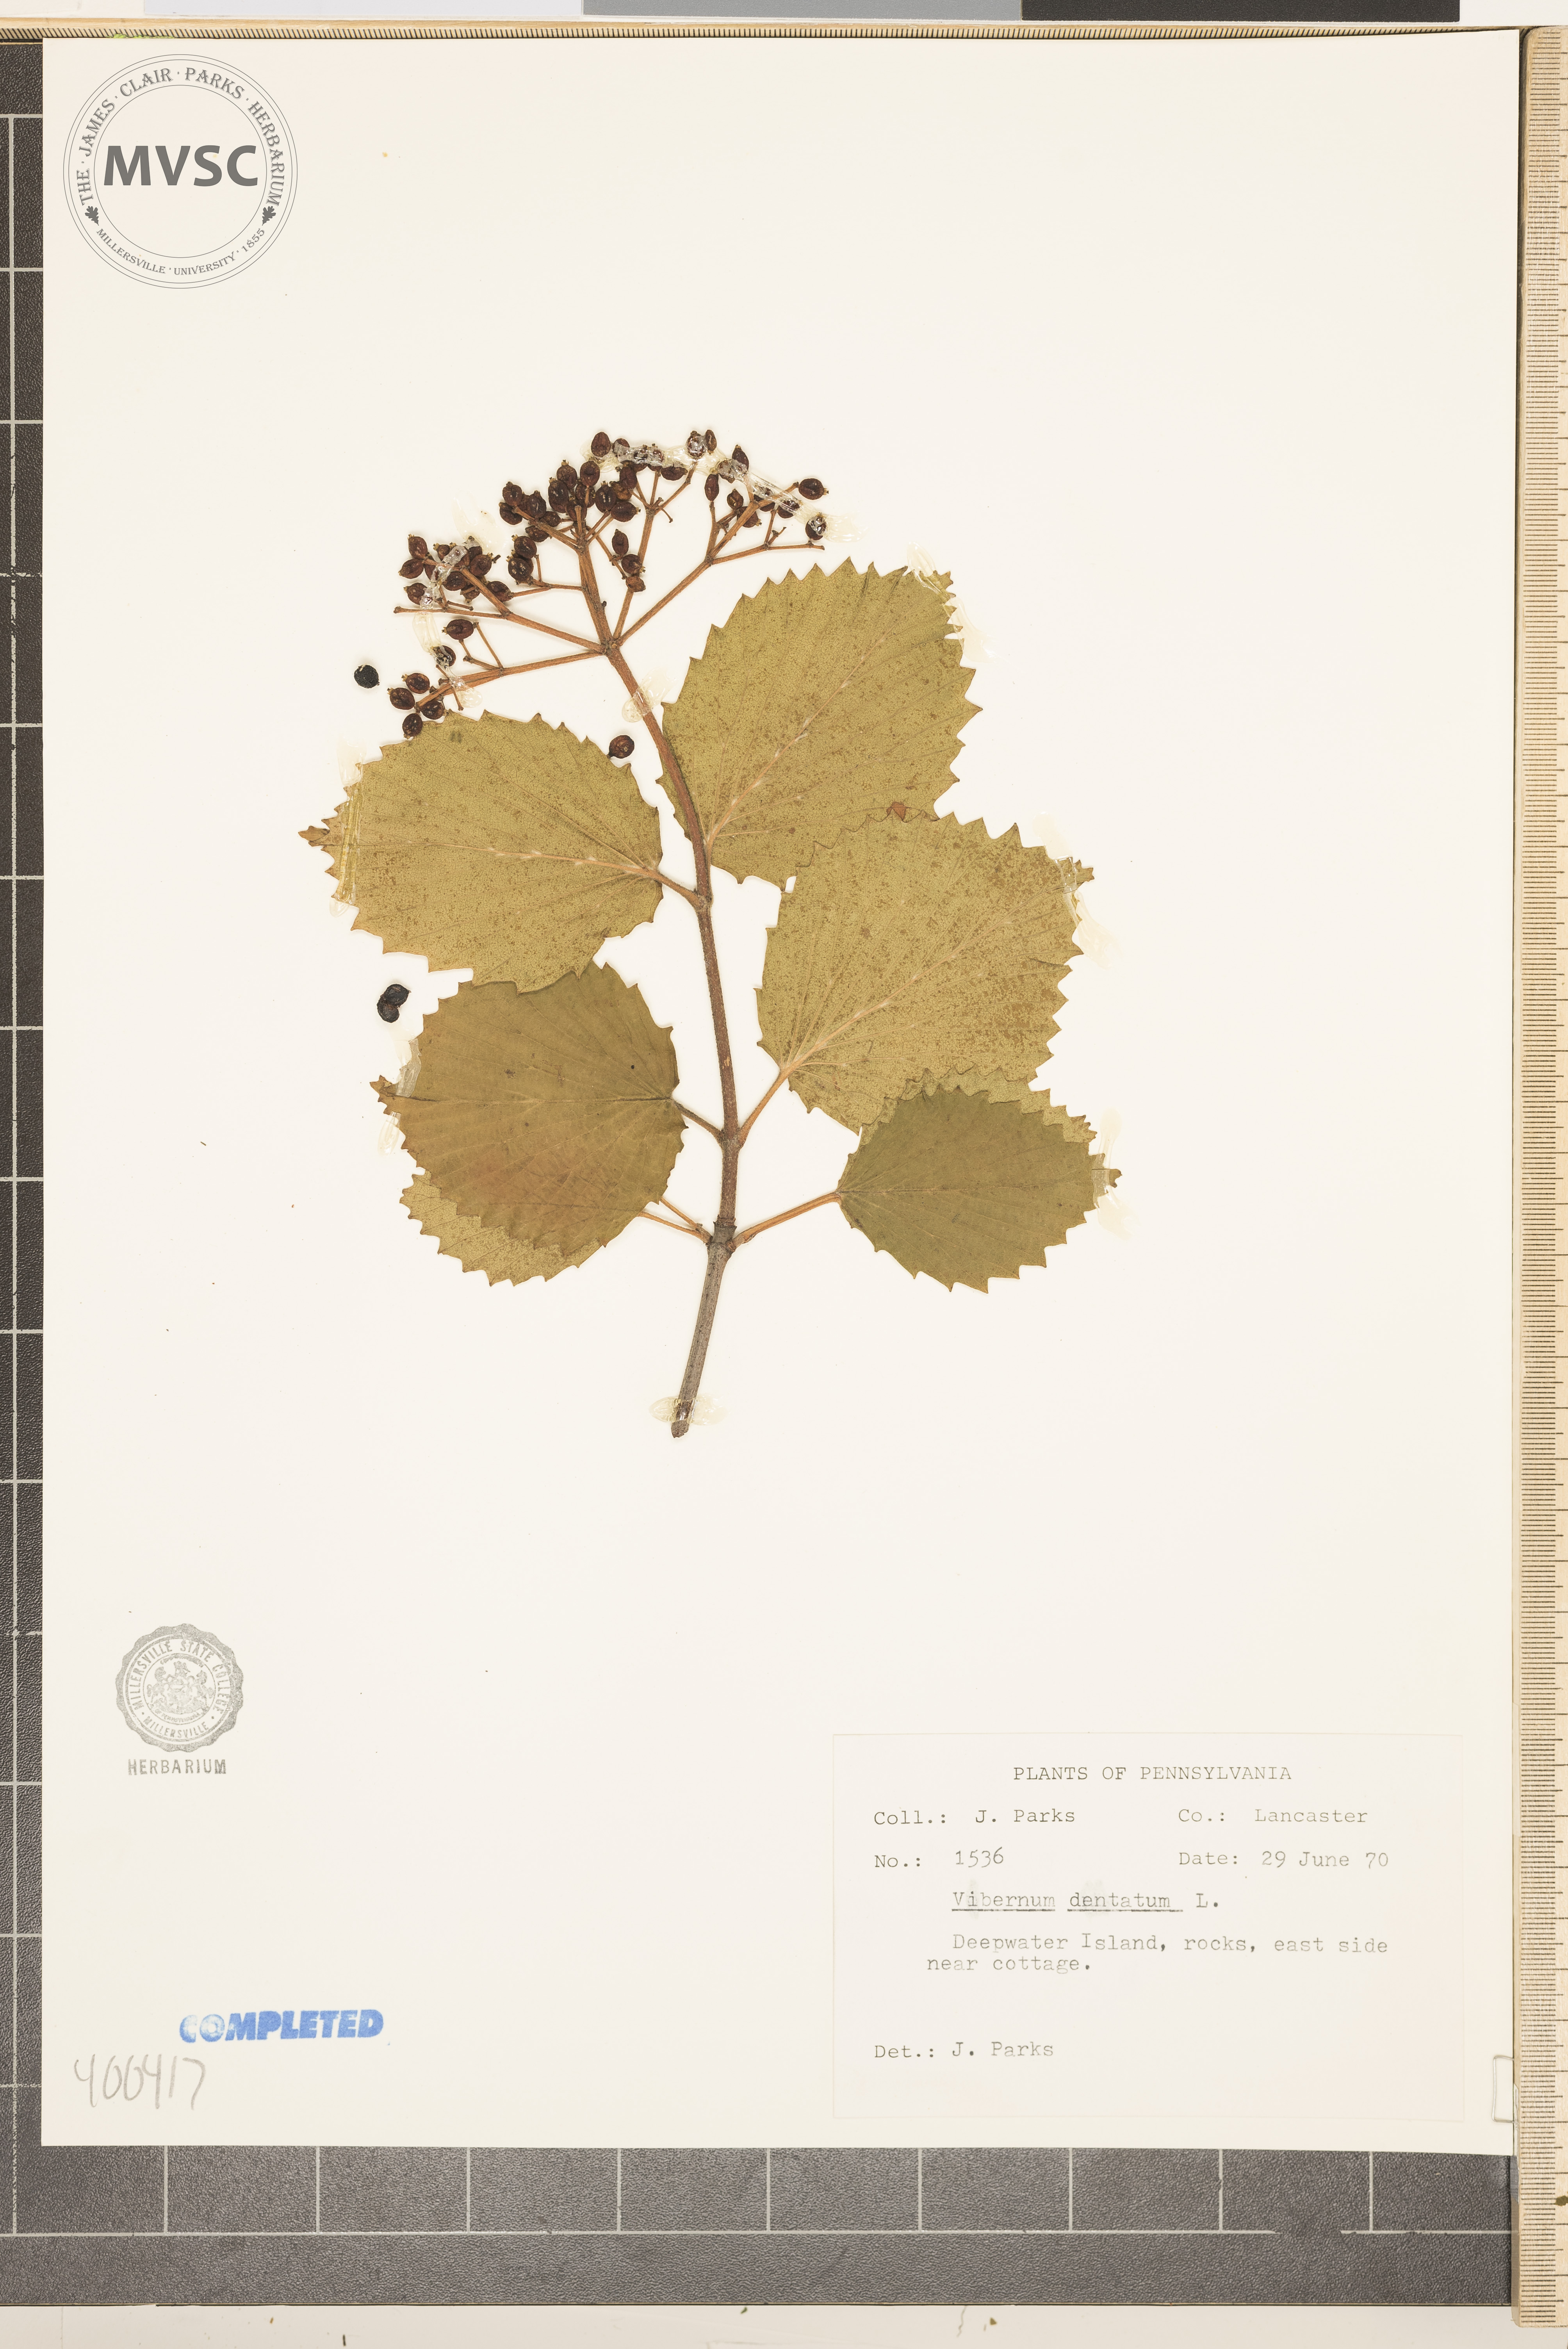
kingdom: Plantae
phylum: Tracheophyta
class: Magnoliopsida
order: Dipsacales
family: Viburnaceae
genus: Viburnum
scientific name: Viburnum dentatum
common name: viburnum
